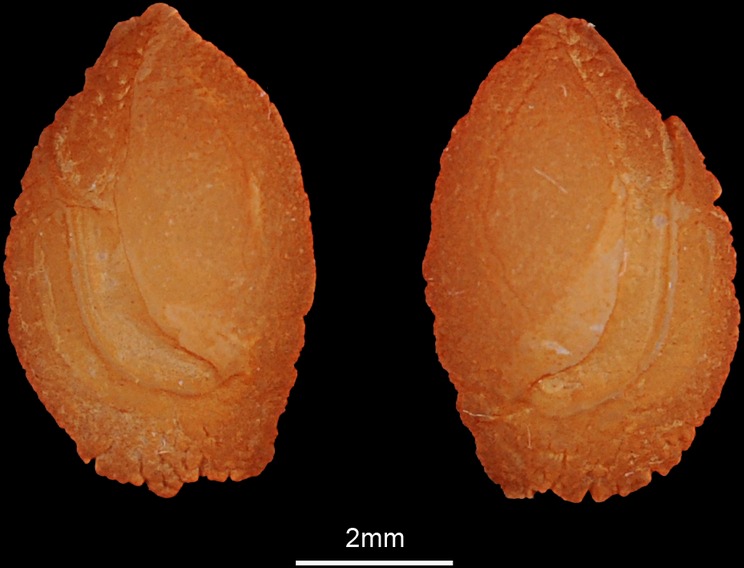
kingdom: Animalia
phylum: Chordata
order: Perciformes
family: Lethrinidae
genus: Lethrinus
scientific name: Lethrinus miniatus
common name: Trumpet emperor
